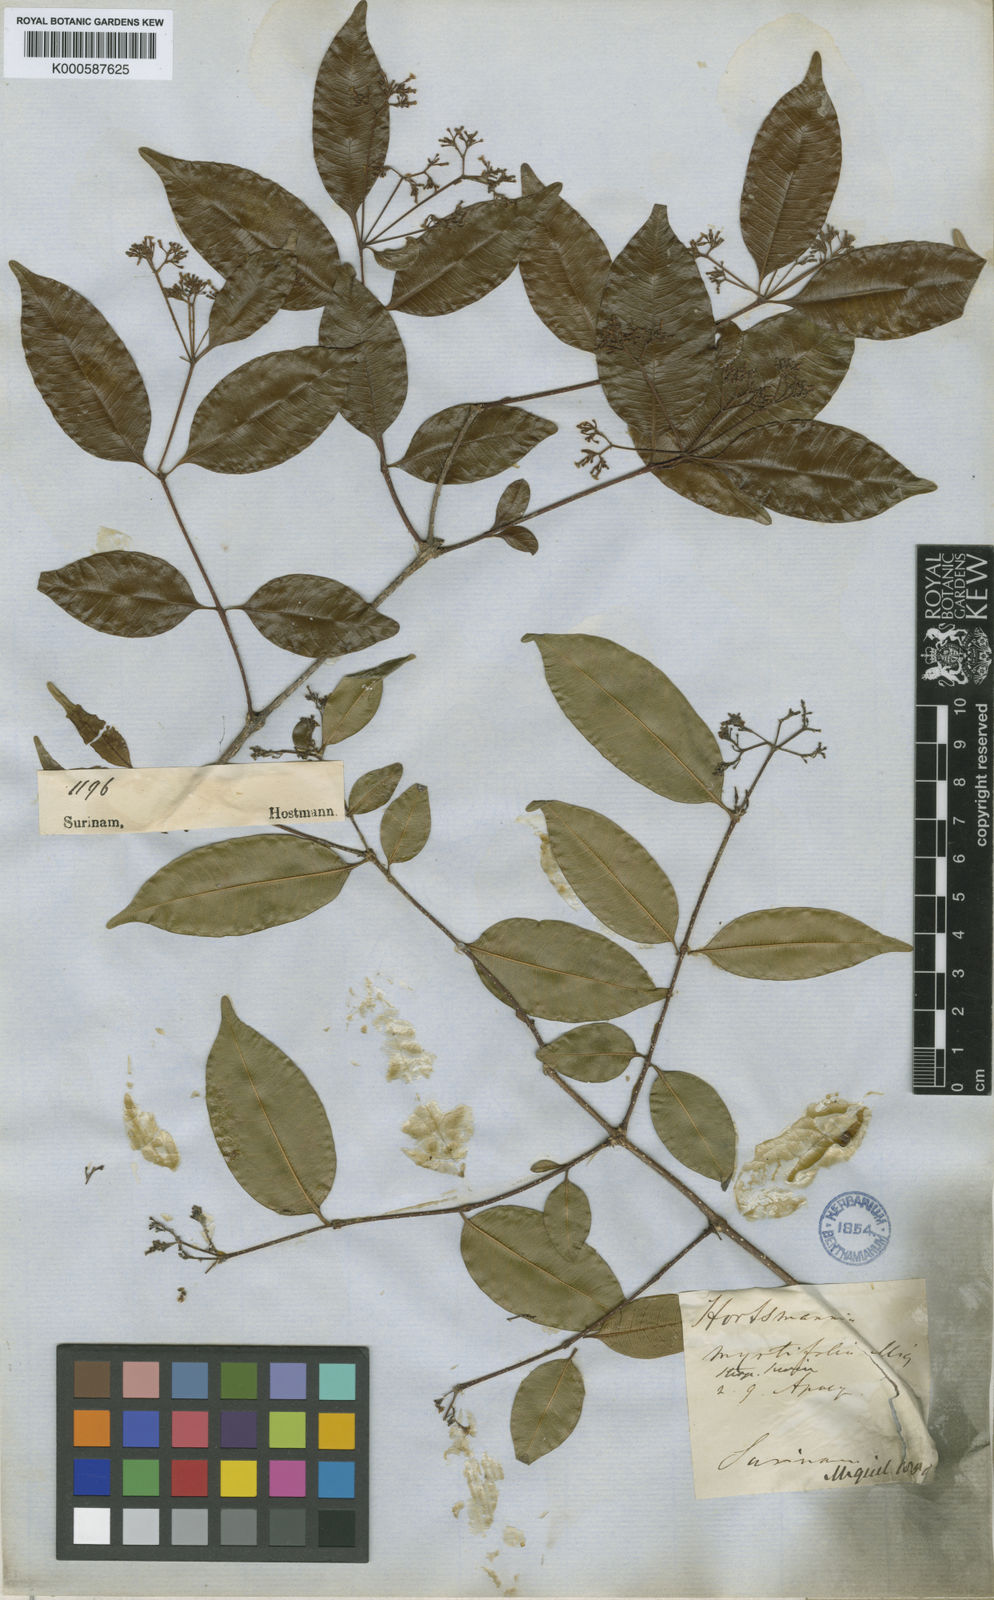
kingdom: Plantae
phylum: Tracheophyta
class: Magnoliopsida
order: Gentianales
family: Apocynaceae
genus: Condylocarpon
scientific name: Condylocarpon
